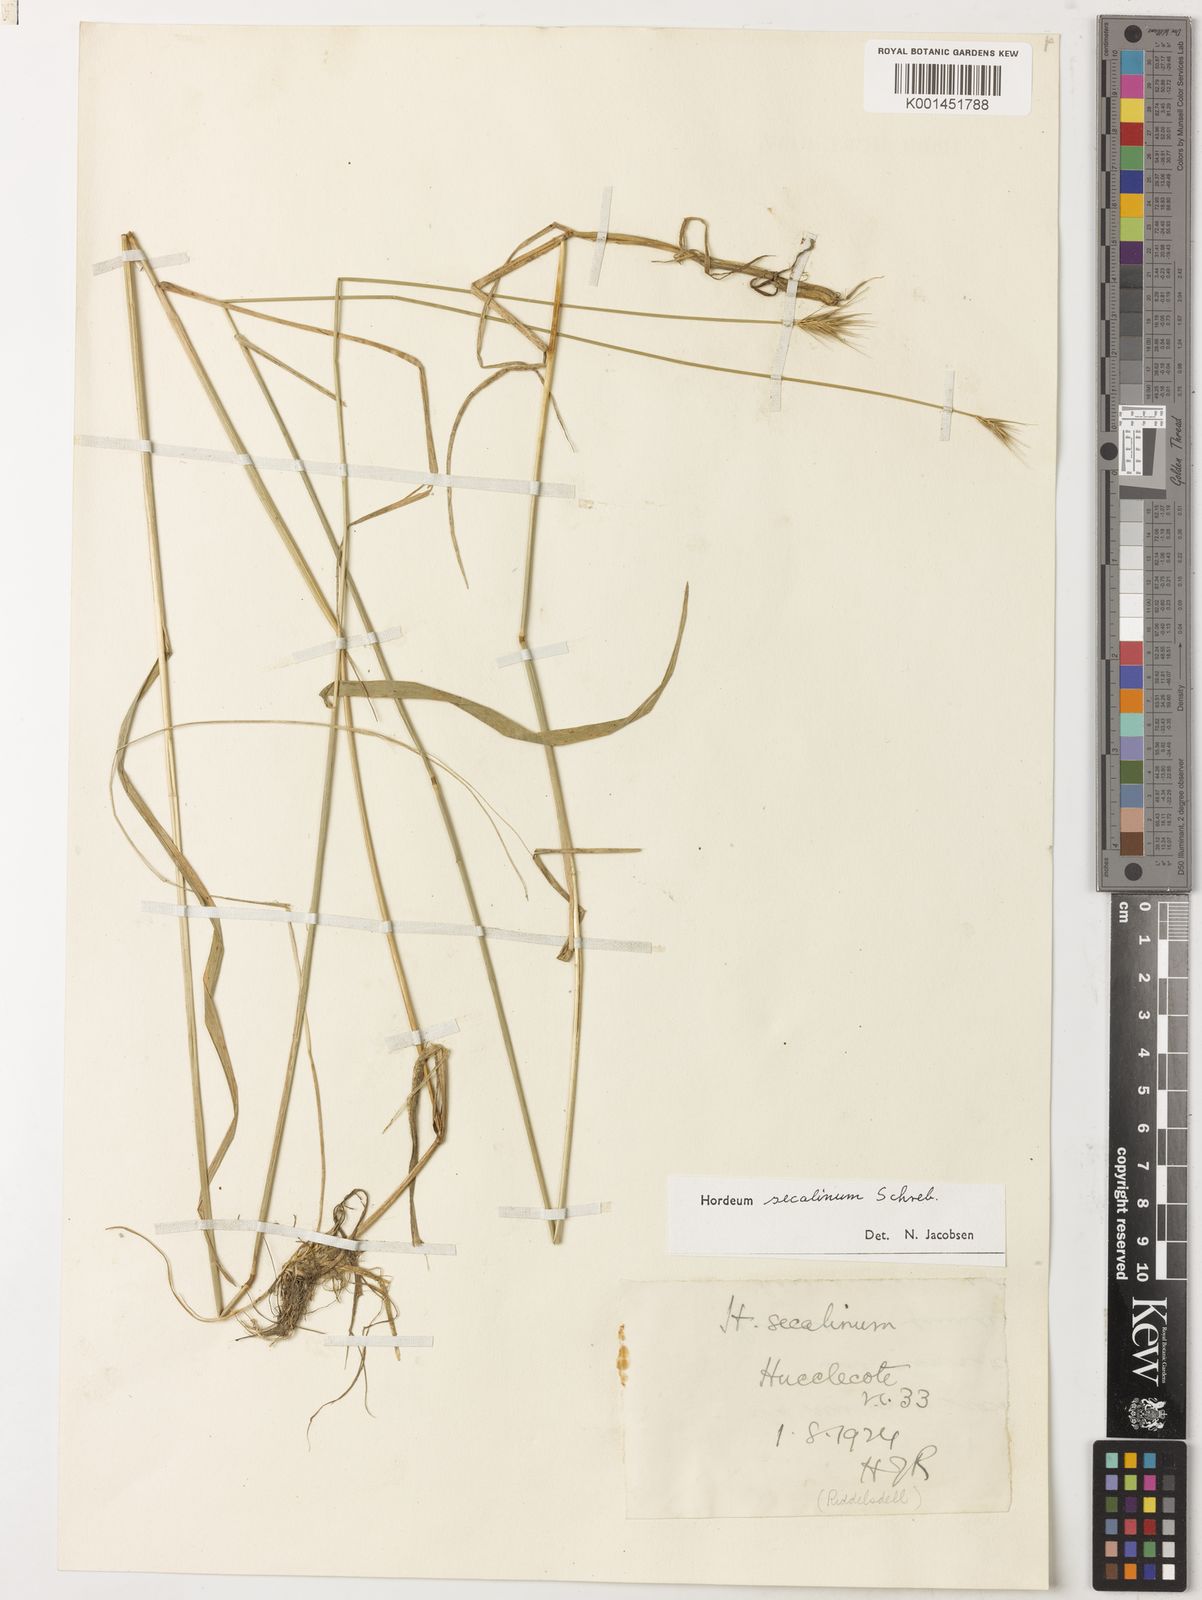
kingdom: Plantae
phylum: Tracheophyta
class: Liliopsida
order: Poales
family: Poaceae
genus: Hordeum
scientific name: Hordeum secalinum
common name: Meadow barley
